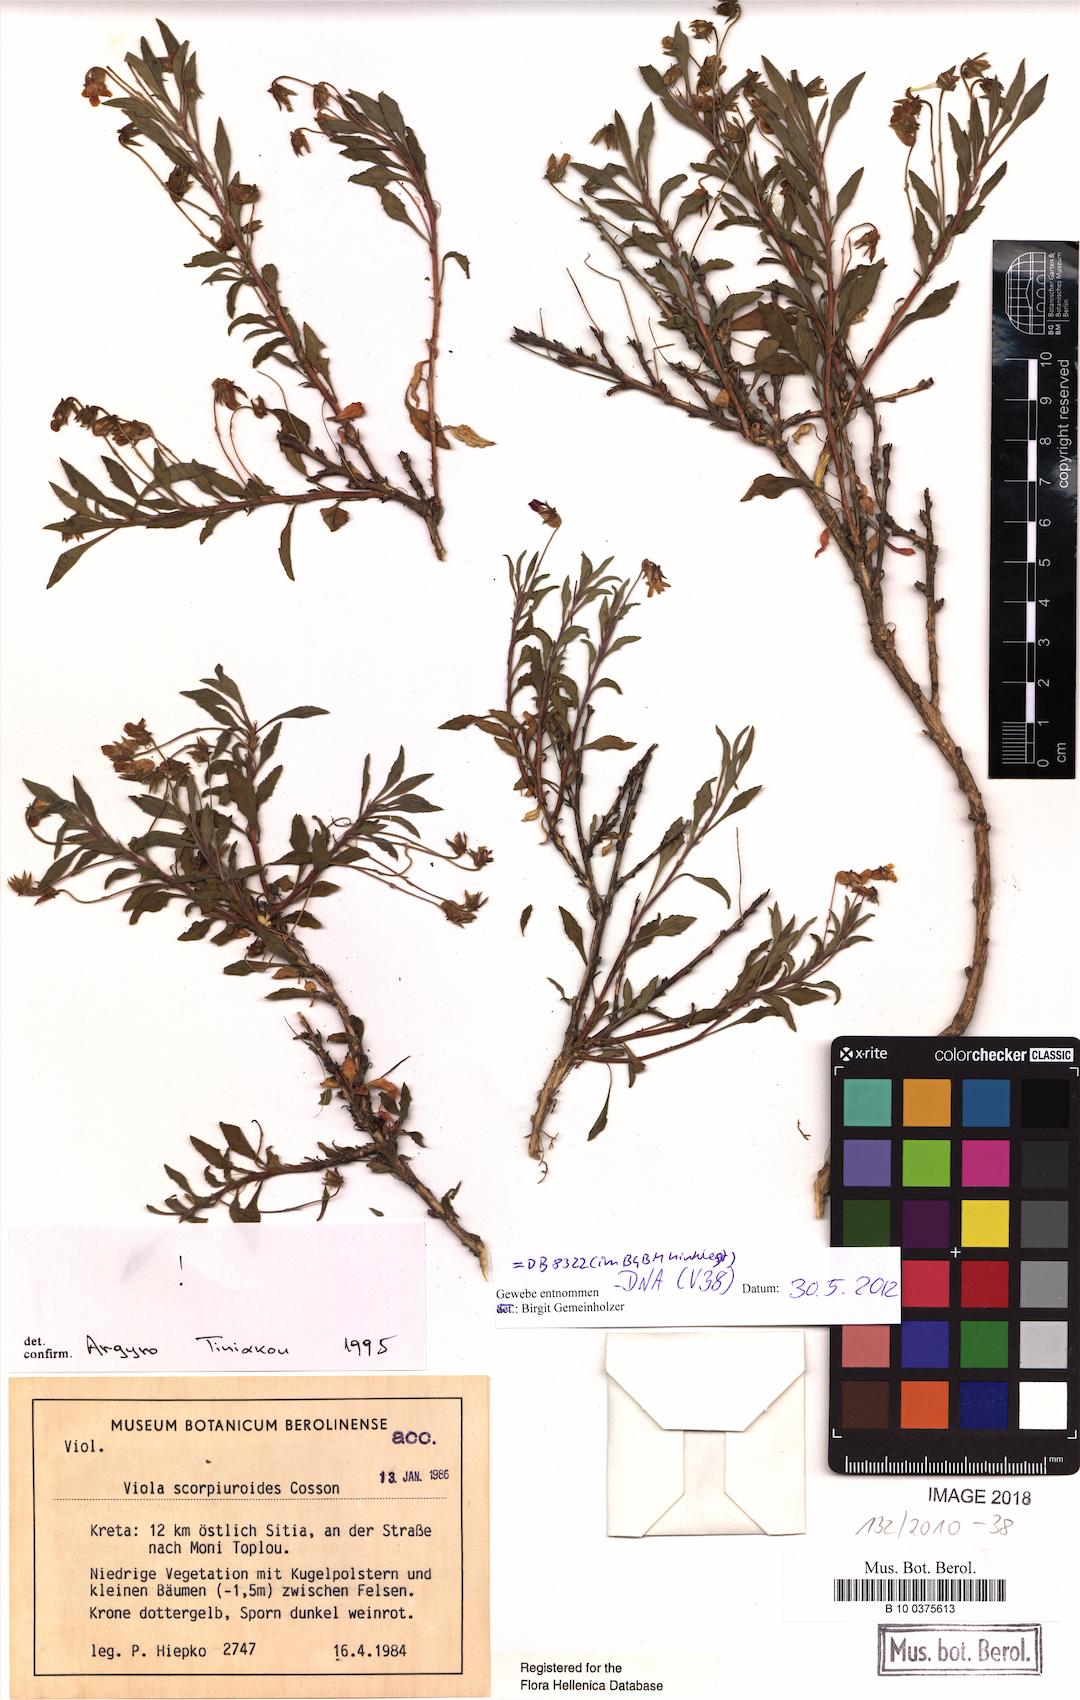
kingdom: Plantae
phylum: Tracheophyta
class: Magnoliopsida
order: Malpighiales
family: Violaceae
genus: Viola
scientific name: Viola scorpiuroides
